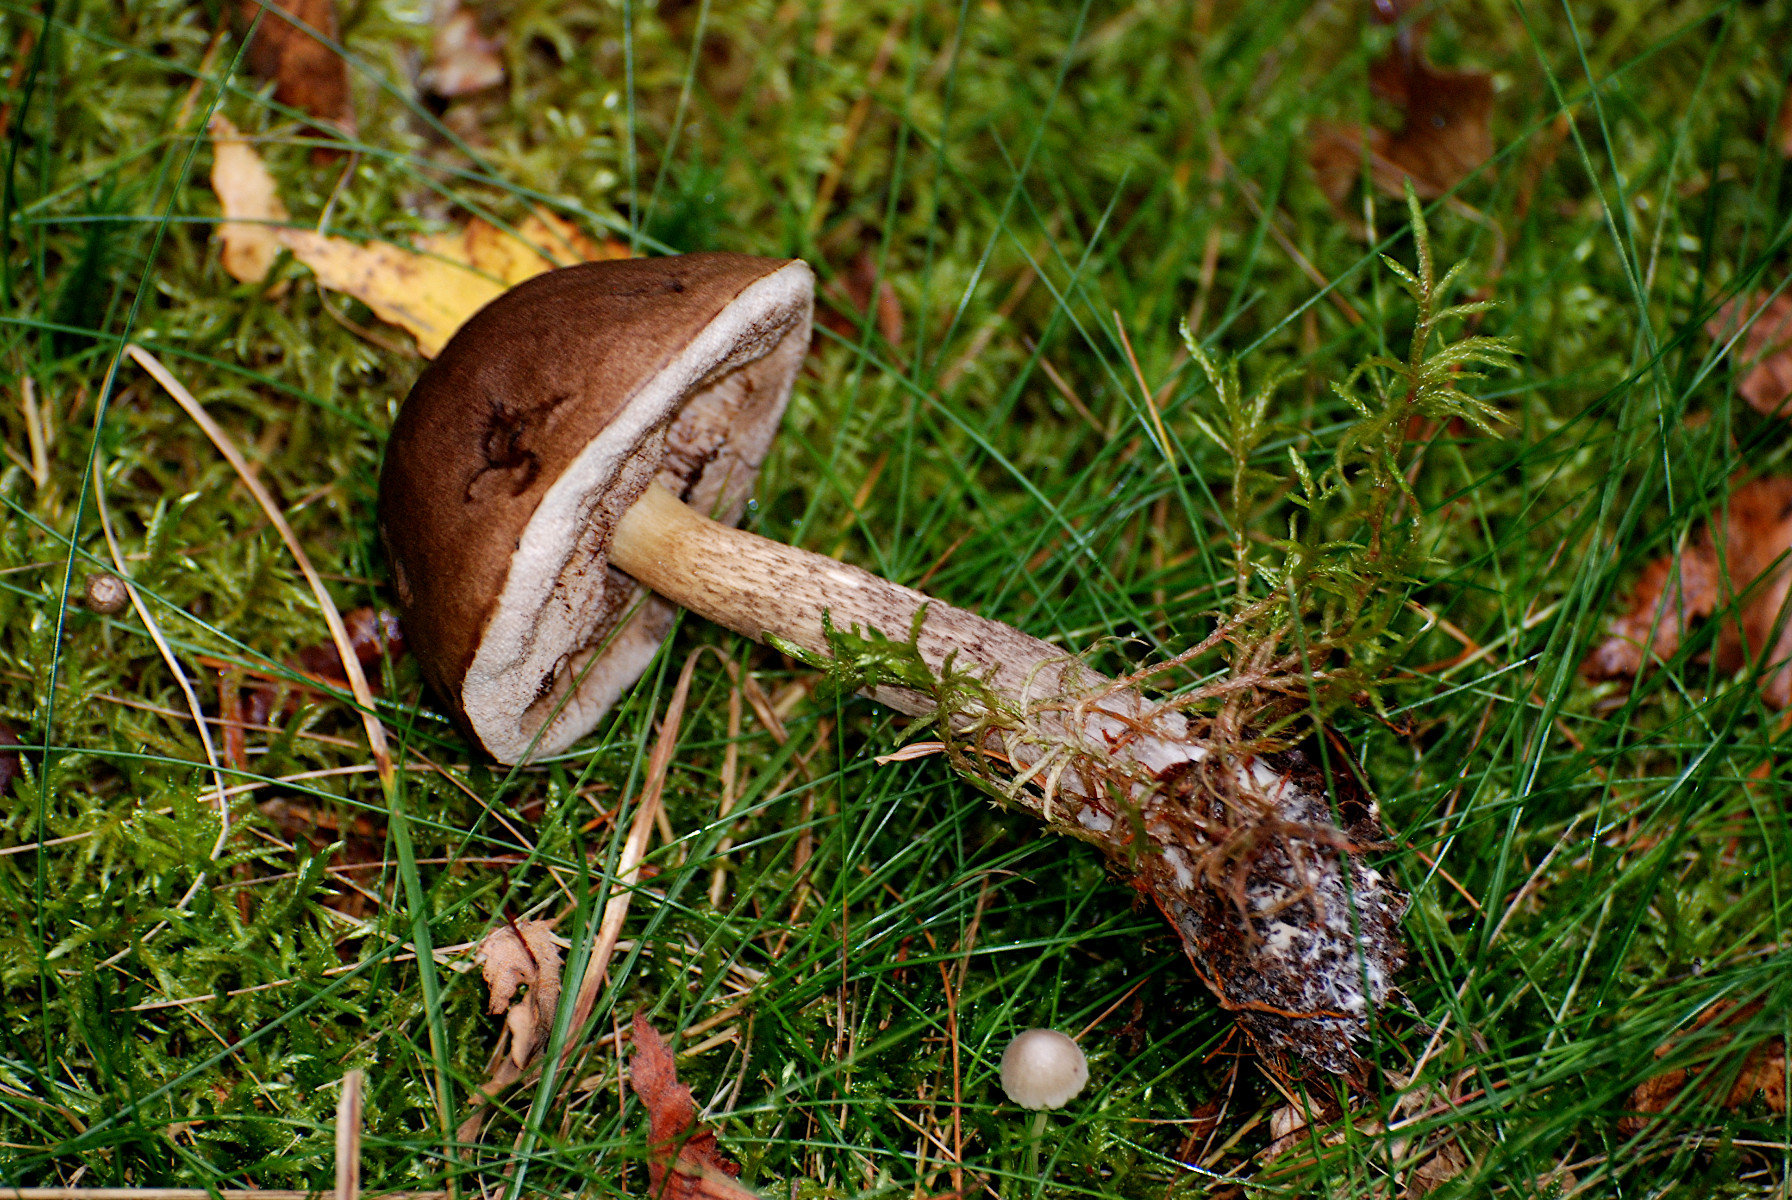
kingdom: Fungi
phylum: Basidiomycota
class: Agaricomycetes
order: Boletales
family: Boletaceae
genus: Leccinum
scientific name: Leccinum scabrum
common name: brun skælrørhat
